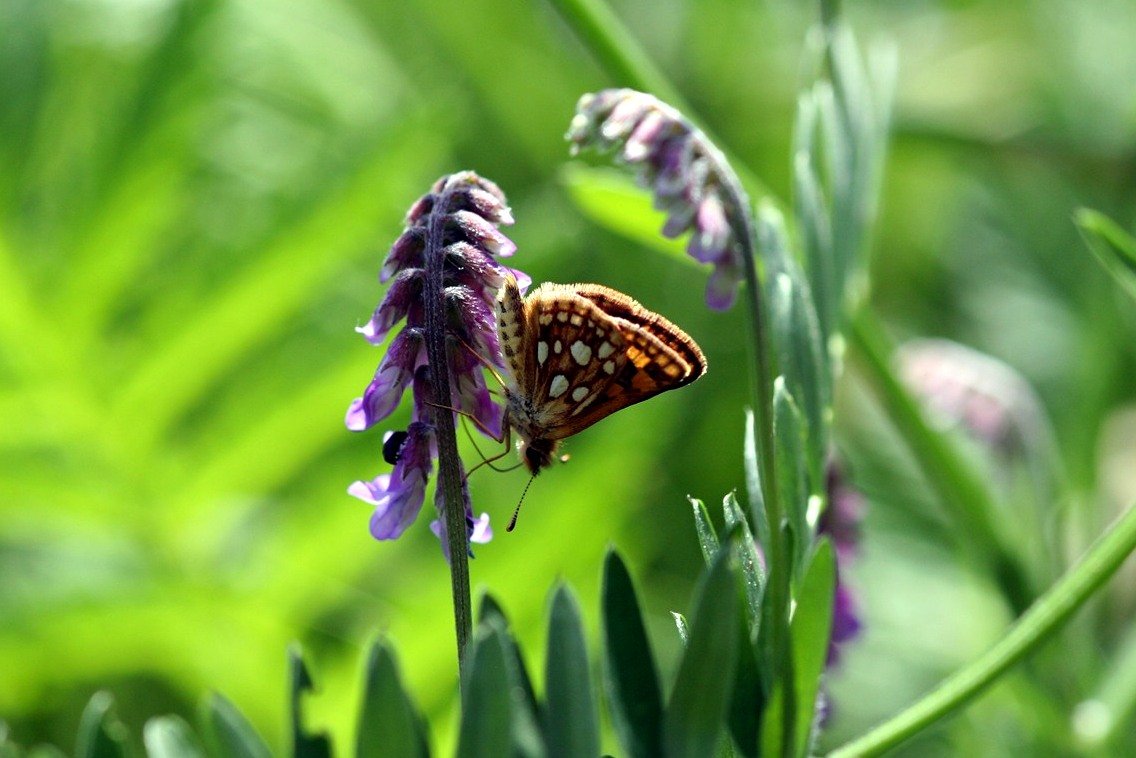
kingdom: Animalia
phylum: Arthropoda
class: Insecta
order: Lepidoptera
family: Hesperiidae
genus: Carterocephalus
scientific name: Carterocephalus palaemon
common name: Chequered Skipper
